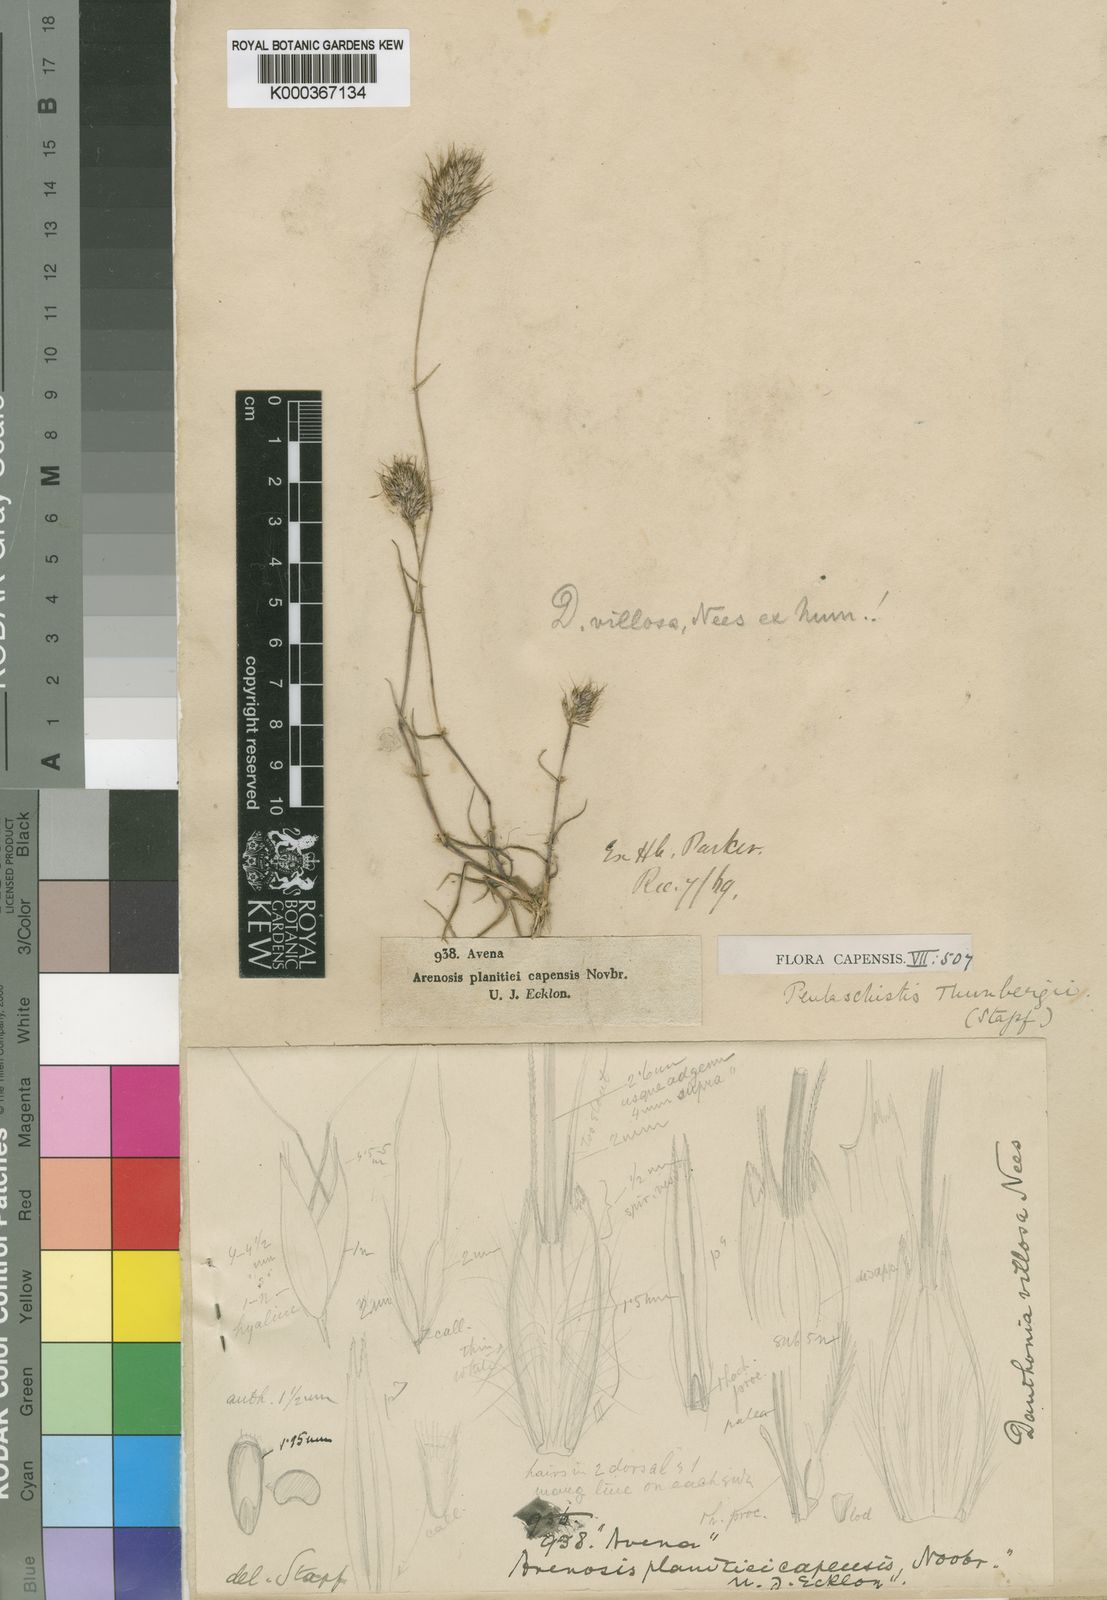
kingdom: Plantae
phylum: Tracheophyta
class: Liliopsida
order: Poales
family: Poaceae
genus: Pentameris
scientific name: Pentameris triseta
